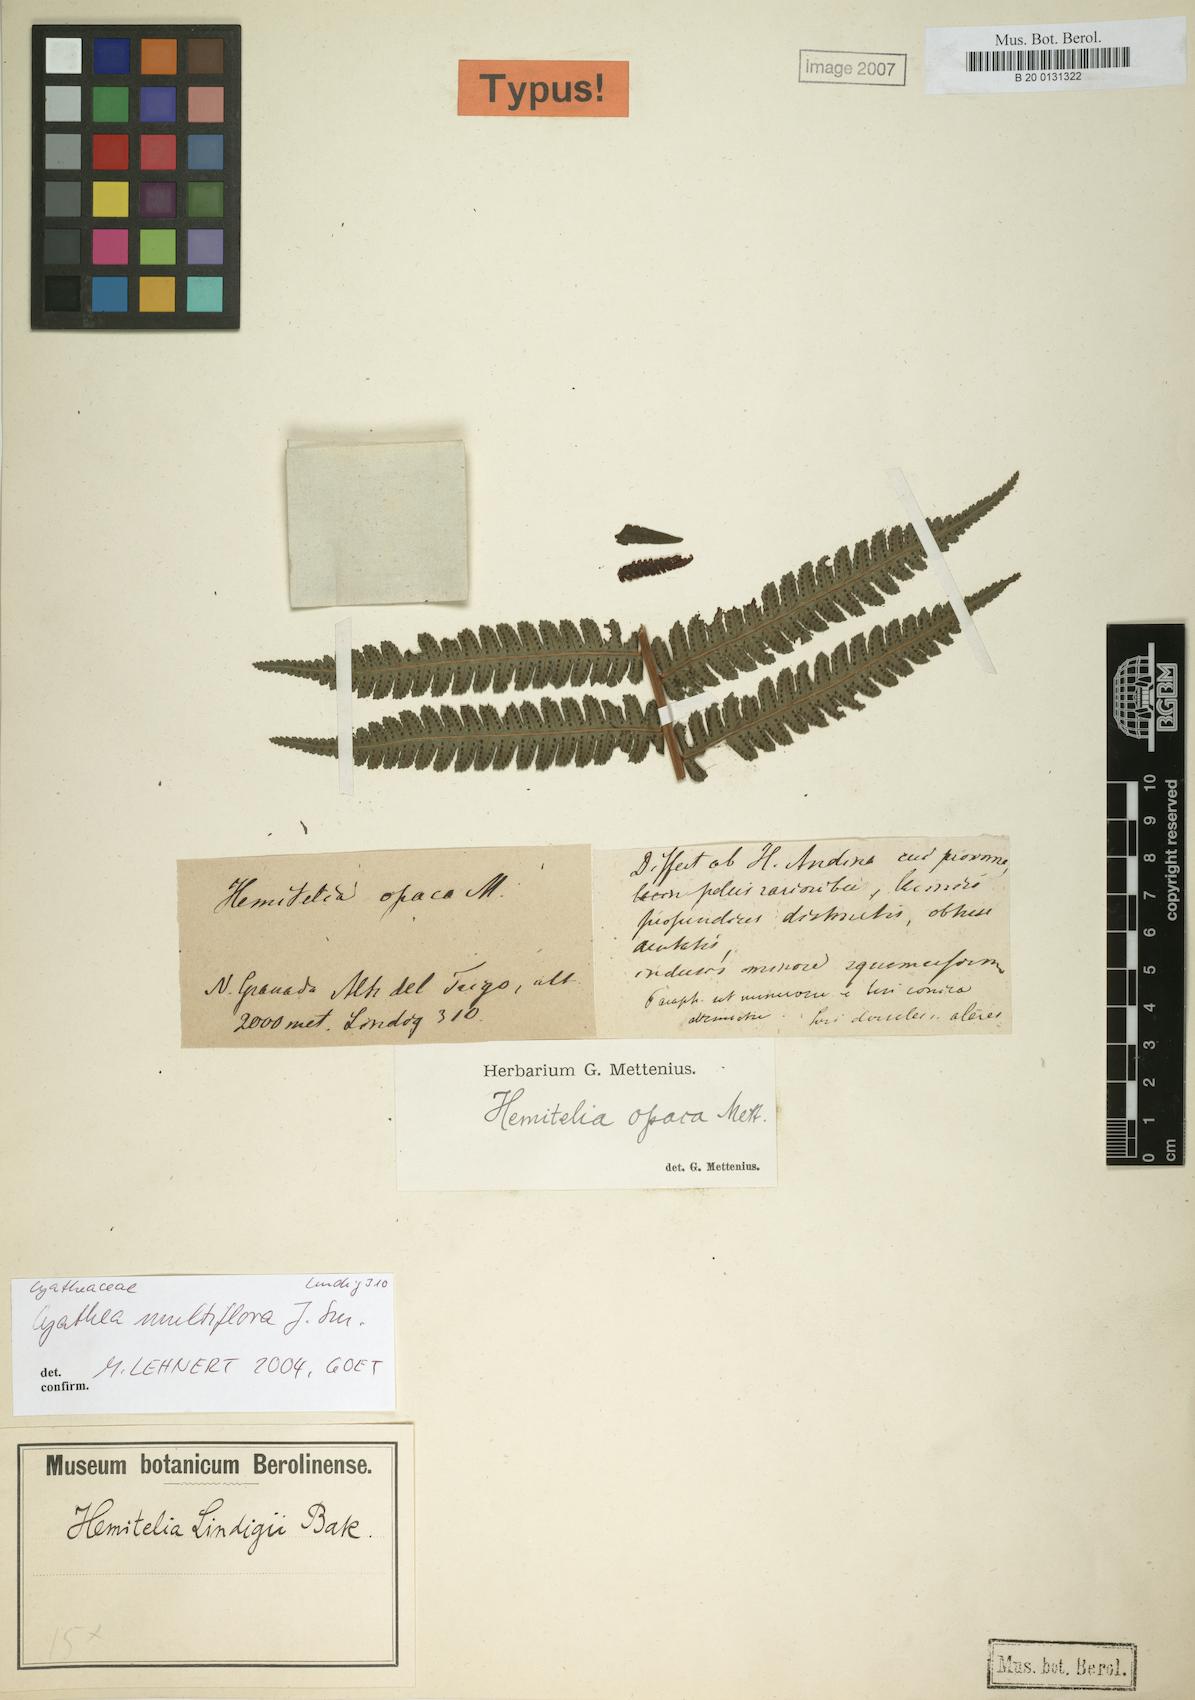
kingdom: Plantae
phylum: Tracheophyta
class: Polypodiopsida
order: Cyatheales
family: Cyatheaceae
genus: Cyathea
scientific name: Cyathea multiflora
